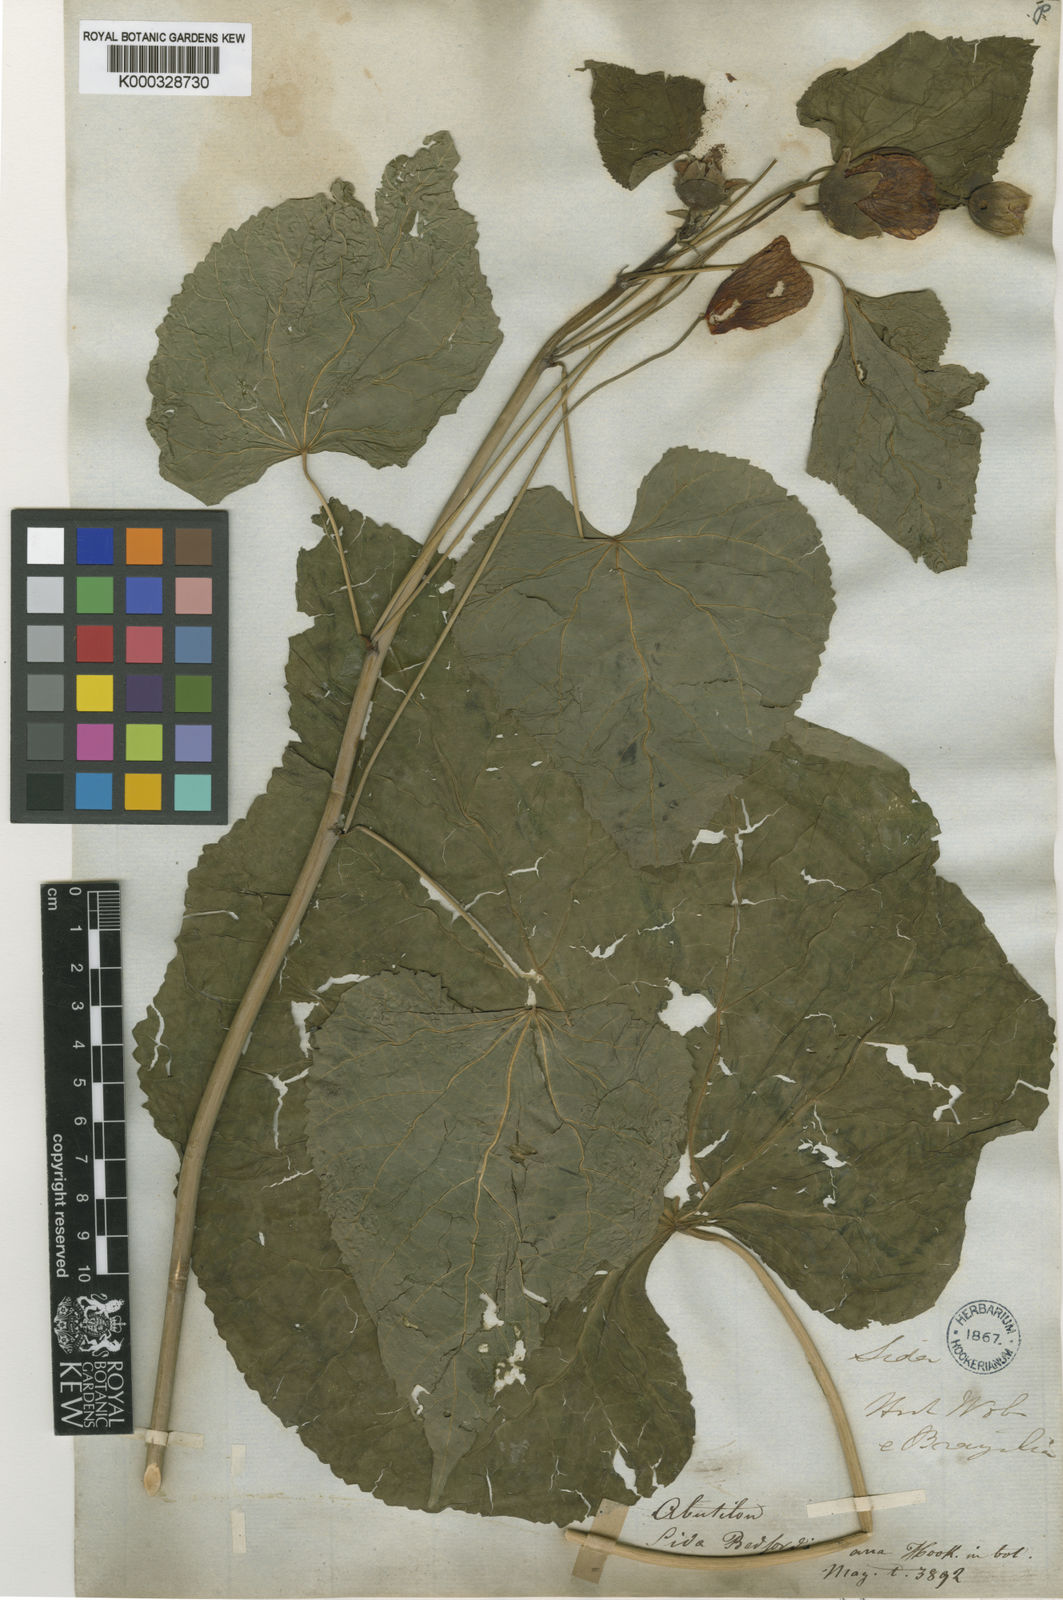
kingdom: Plantae
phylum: Tracheophyta
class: Magnoliopsida
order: Malvales
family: Malvaceae
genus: Callianthe
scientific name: Callianthe bedfordiana
